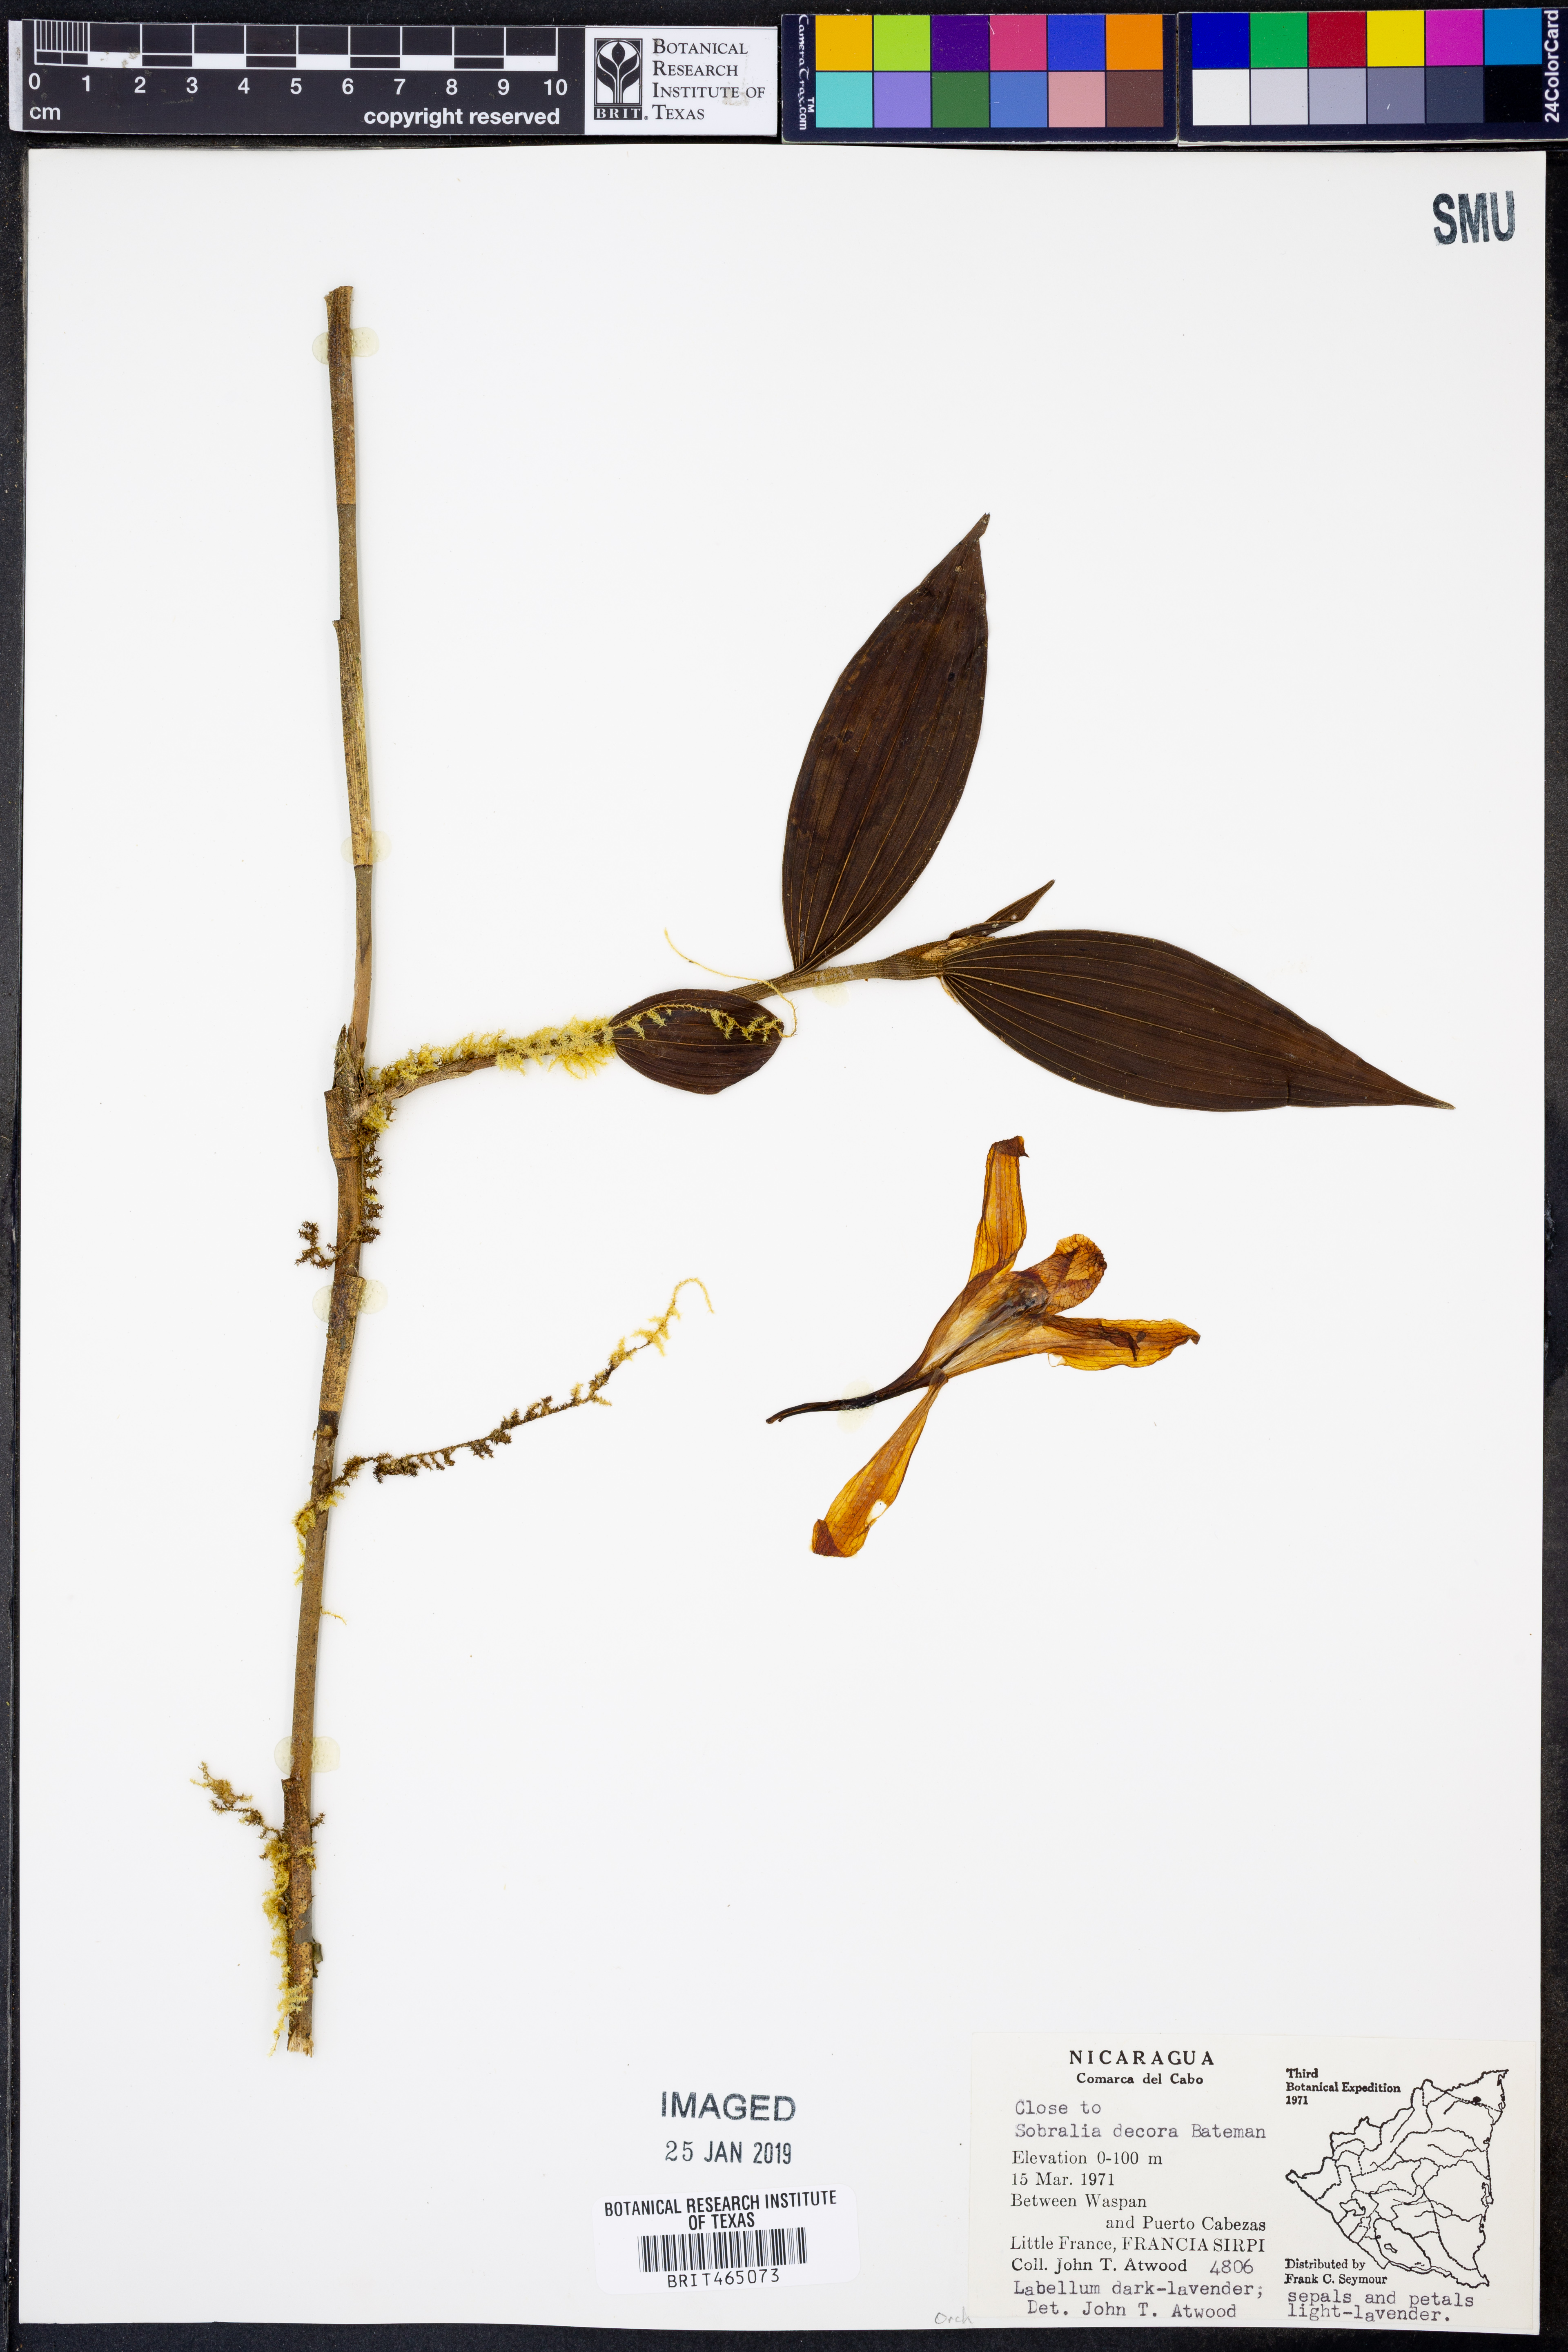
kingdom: Plantae
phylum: Tracheophyta
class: Liliopsida
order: Asparagales
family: Orchidaceae
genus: Sobralia
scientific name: Sobralia decora
